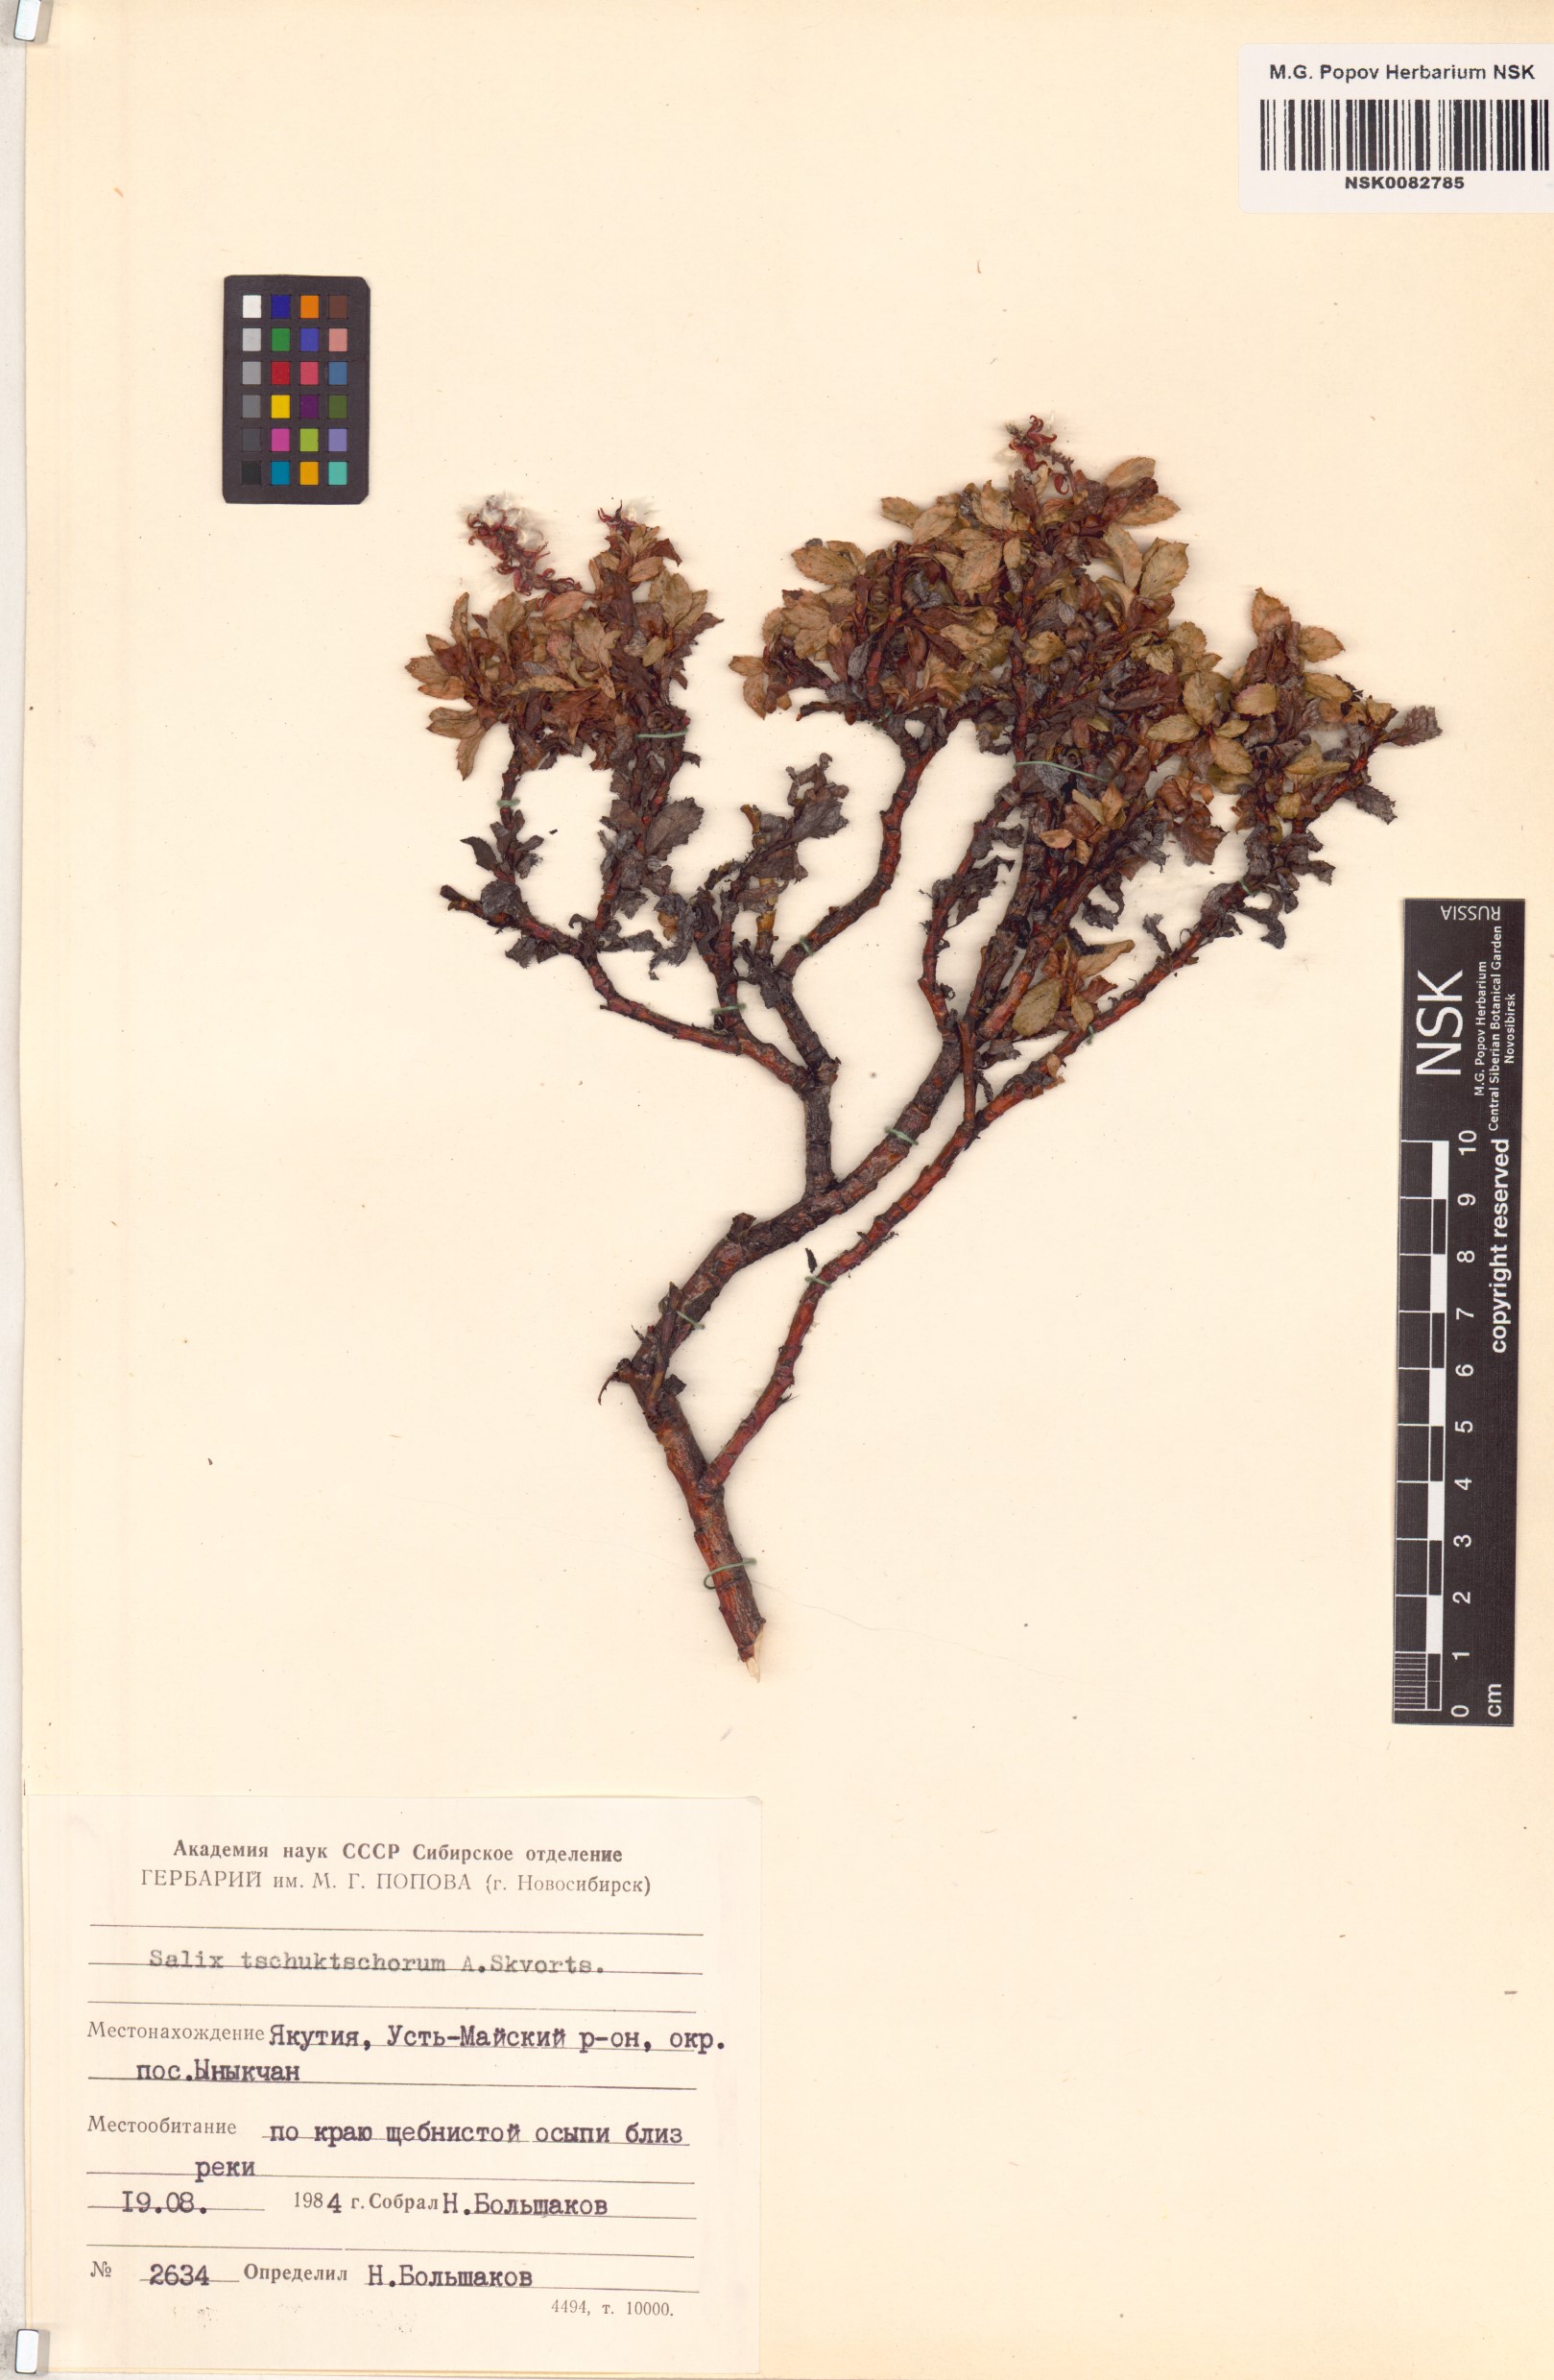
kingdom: Plantae
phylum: Tracheophyta
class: Magnoliopsida
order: Malpighiales
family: Salicaceae
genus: Salix
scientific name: Salix tschuktschorum
